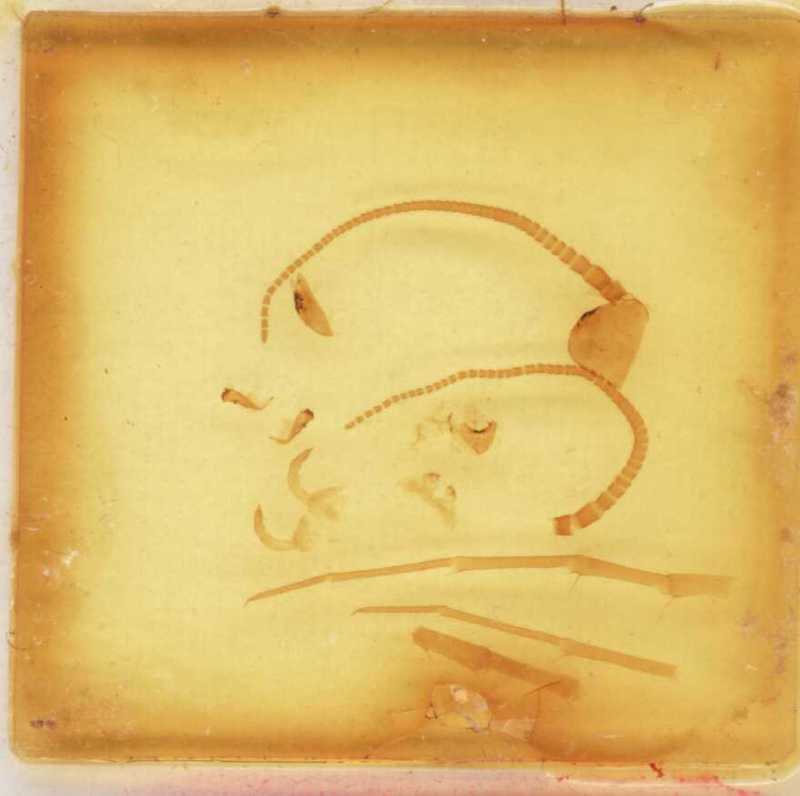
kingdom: Animalia
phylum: Arthropoda
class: Chilopoda
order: Lithobiomorpha
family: Lithobiidae
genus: Polybothrus
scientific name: Polybothrus cerberus
